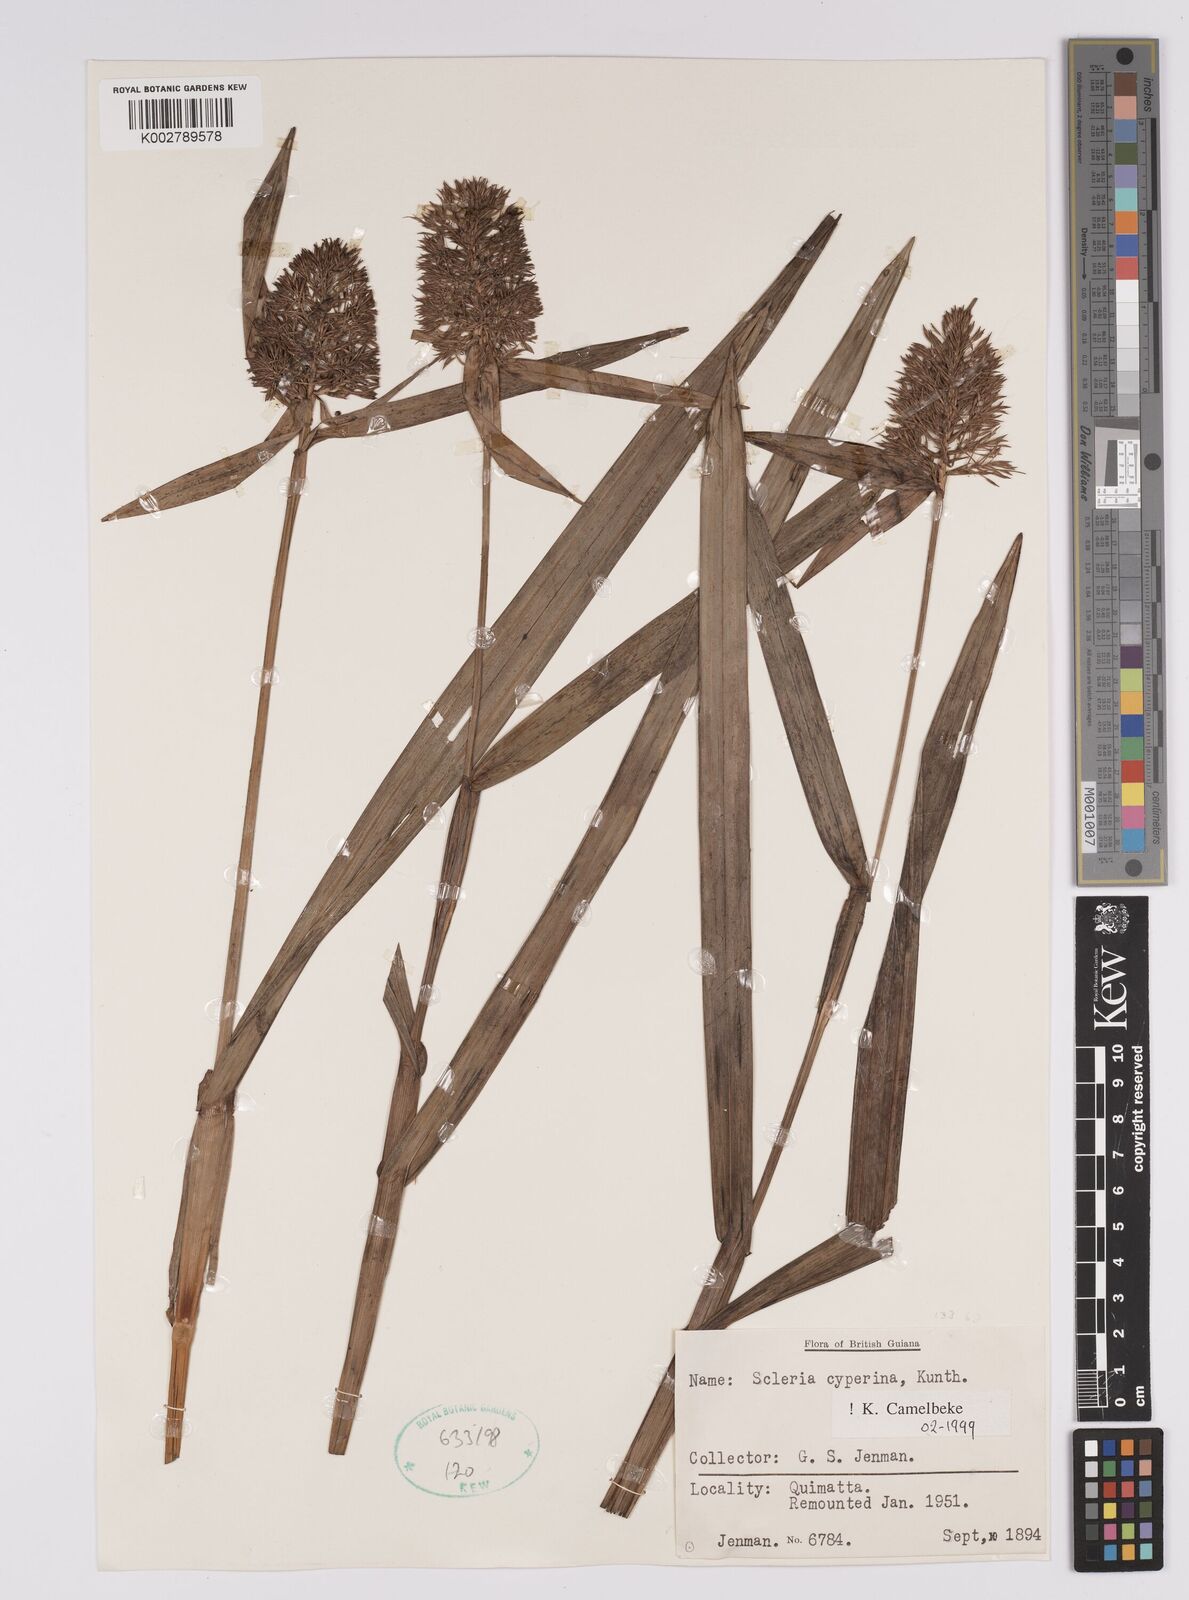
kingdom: Plantae
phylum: Tracheophyta
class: Liliopsida
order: Poales
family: Cyperaceae
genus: Scleria
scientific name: Scleria cyperina
